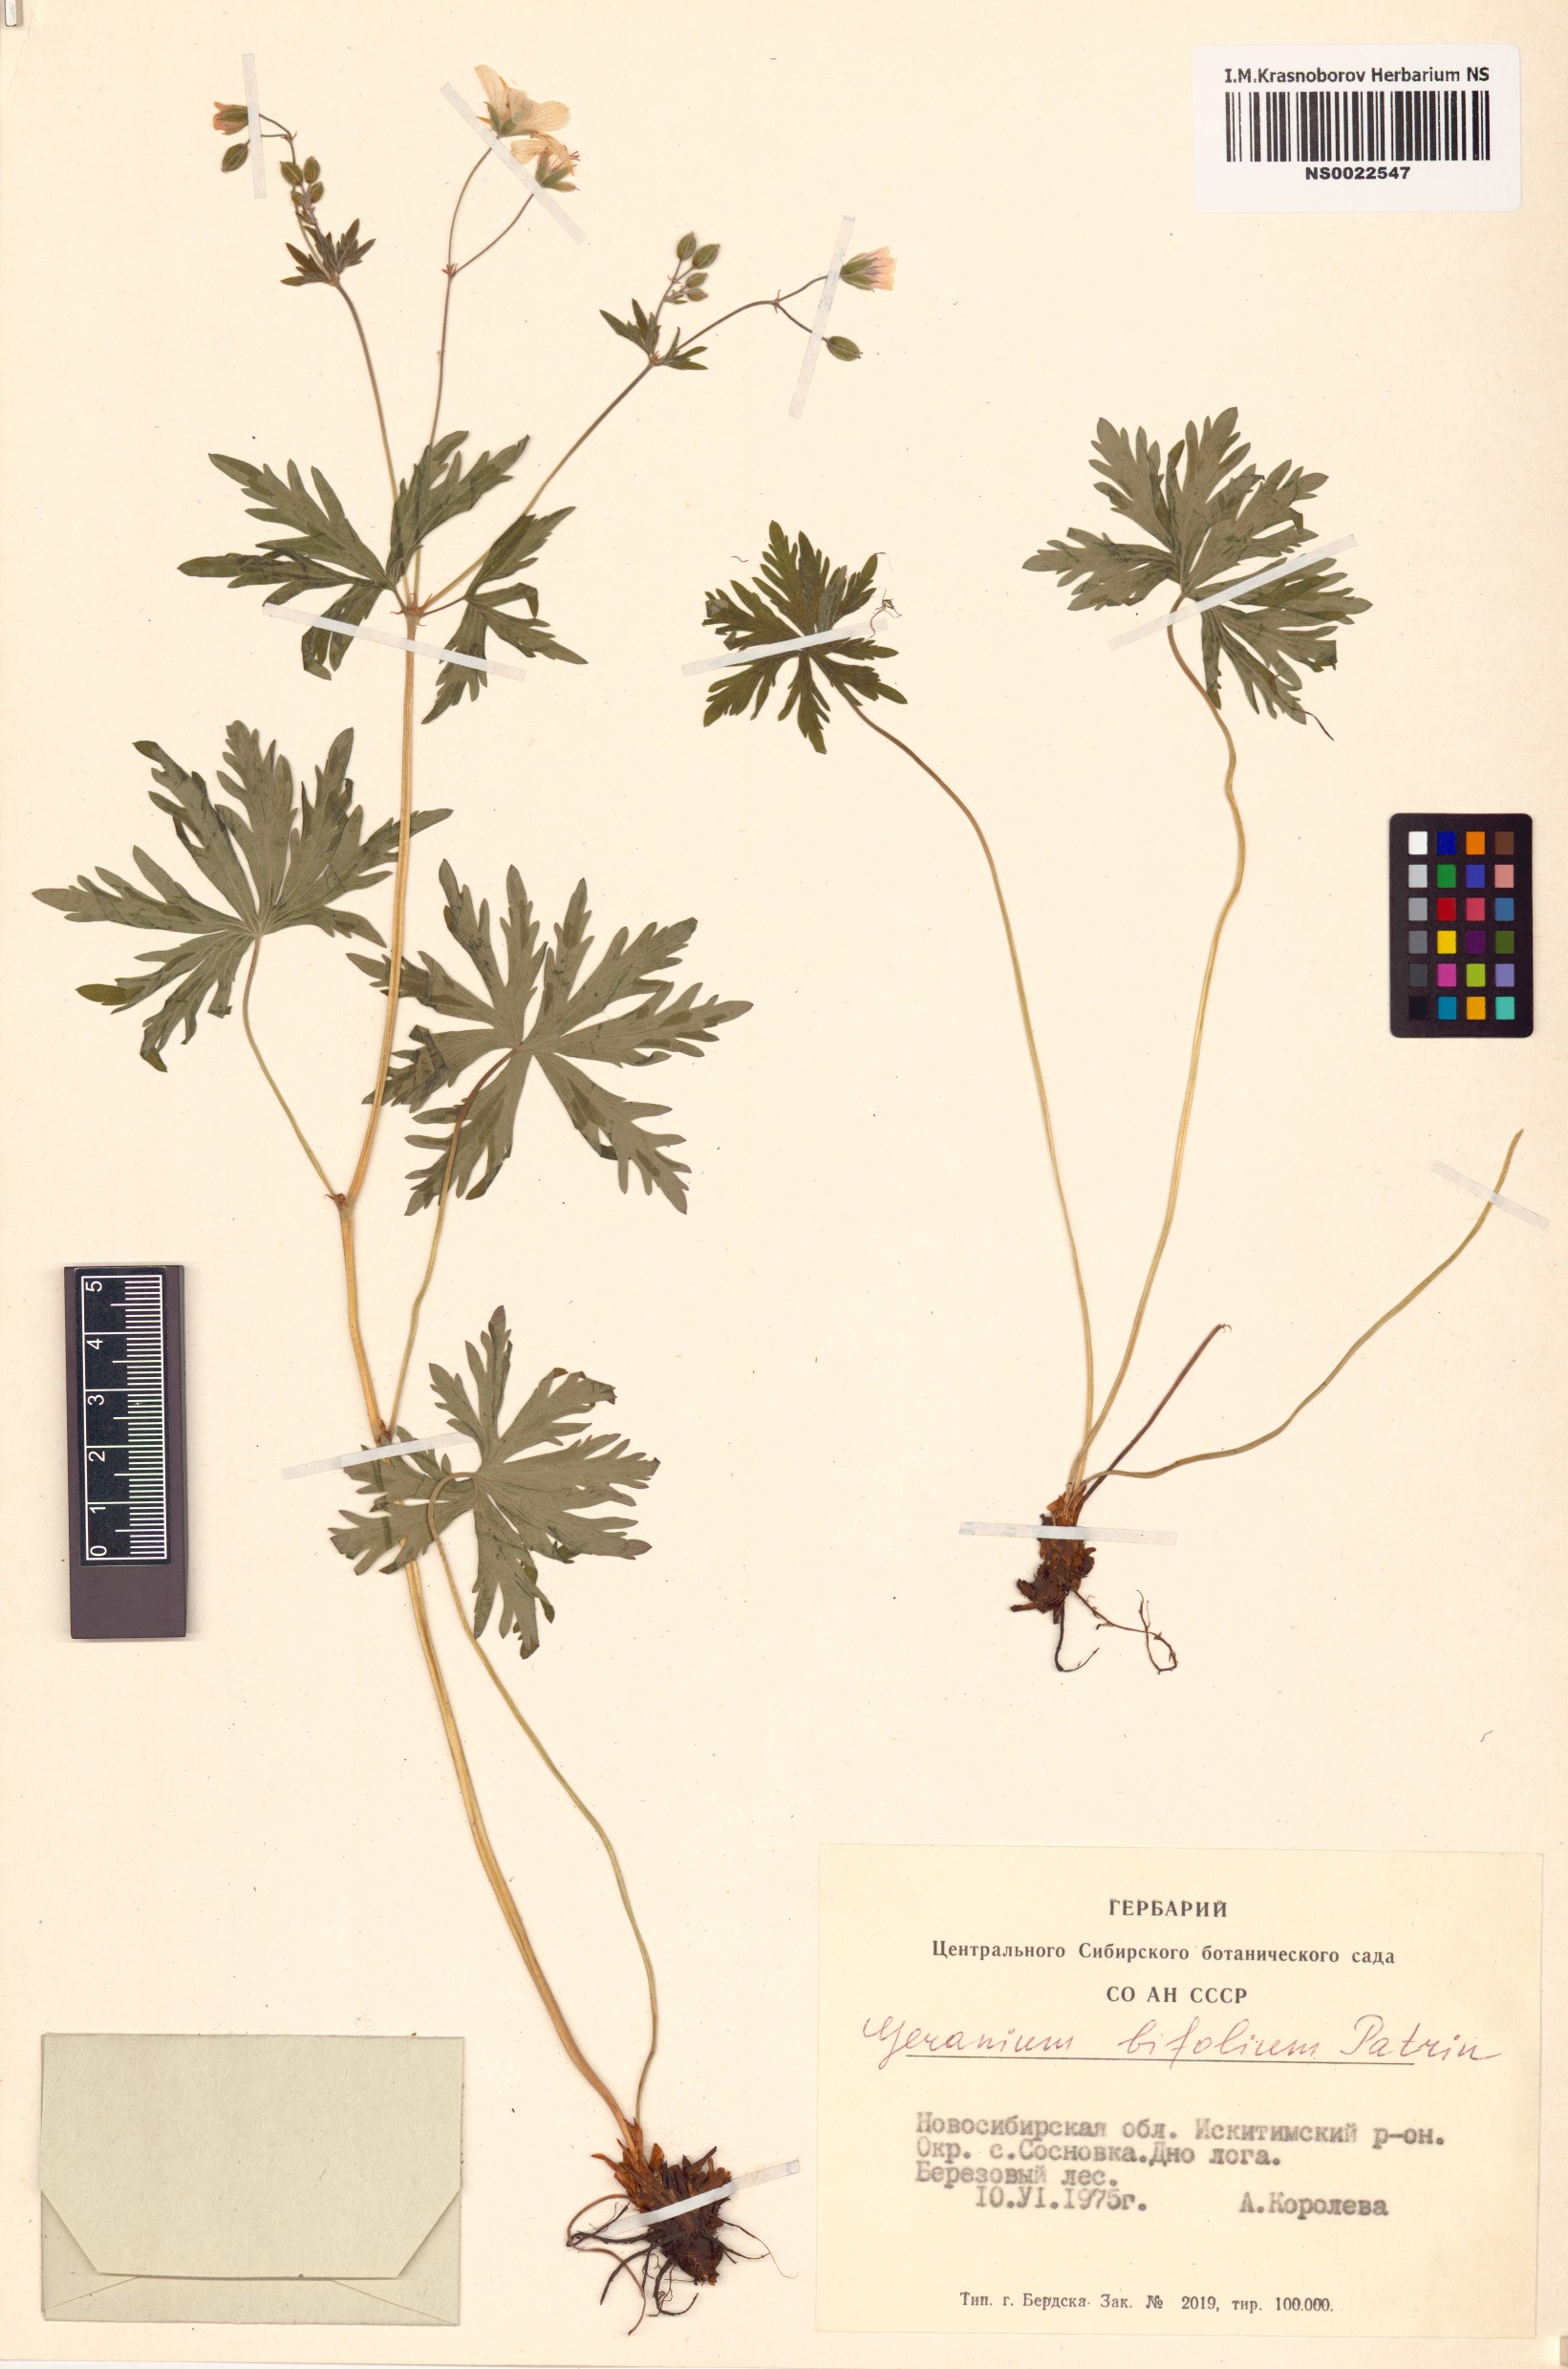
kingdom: Plantae
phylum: Tracheophyta
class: Magnoliopsida
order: Geraniales
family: Geraniaceae
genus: Geranium
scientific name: Geranium pseudosibiricum
